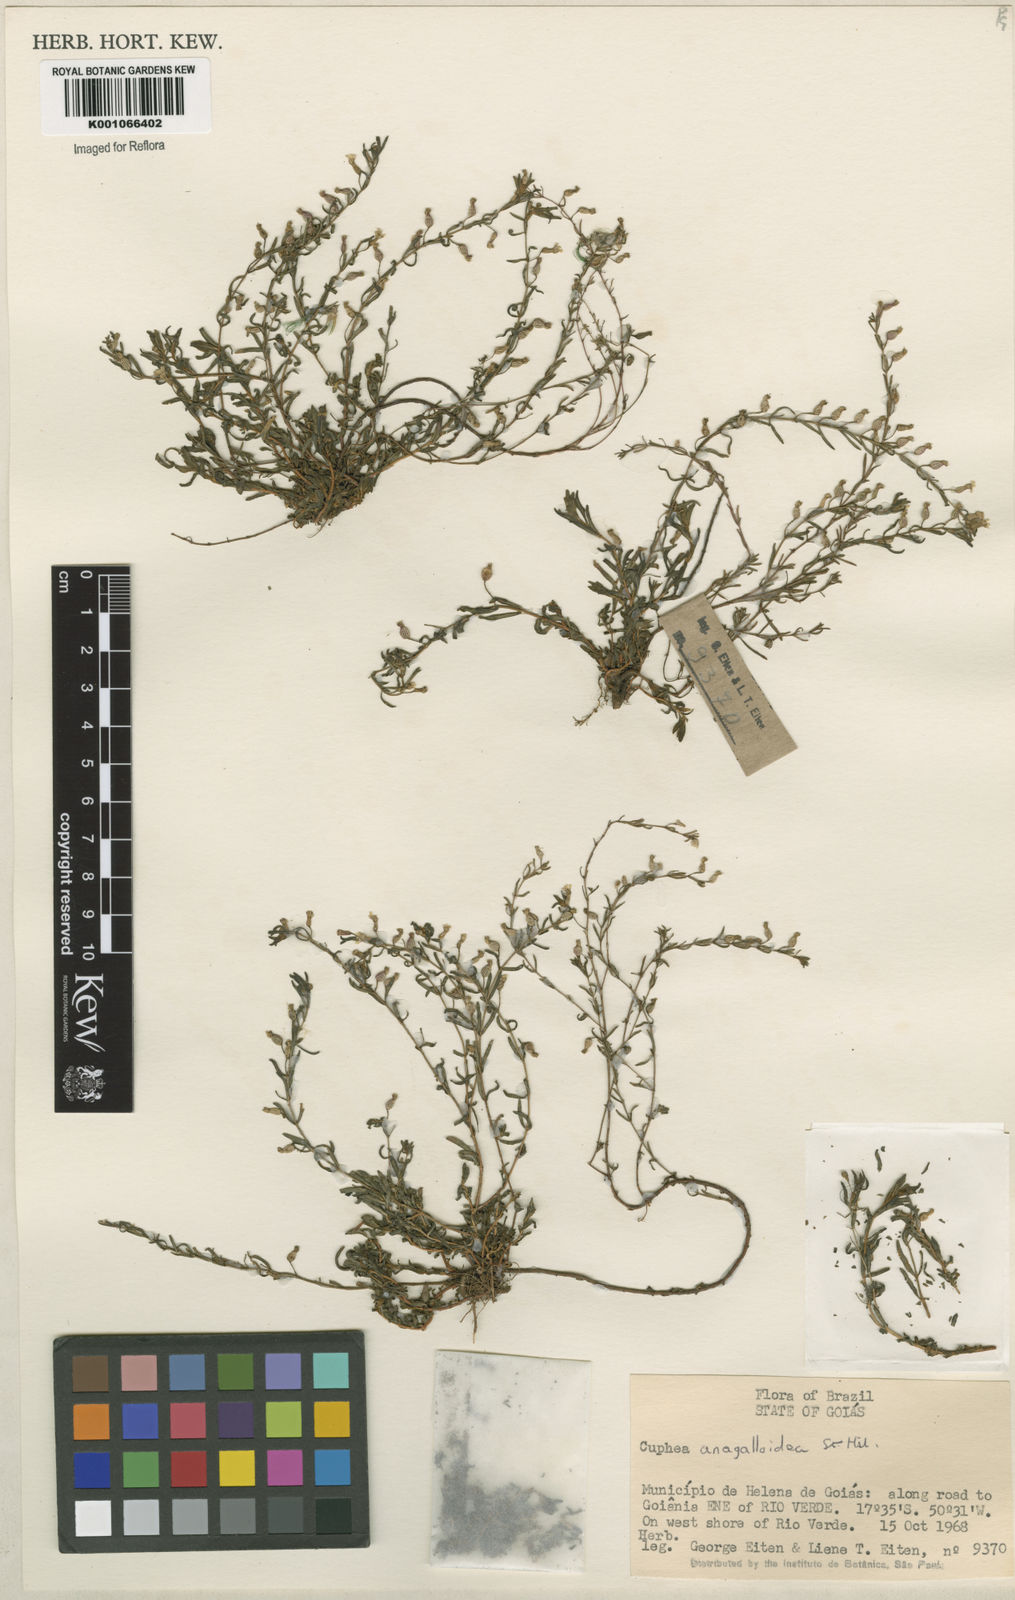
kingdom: Plantae
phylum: Tracheophyta
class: Magnoliopsida
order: Myrtales
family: Lythraceae
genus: Cuphea
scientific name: Cuphea anagalloidea
